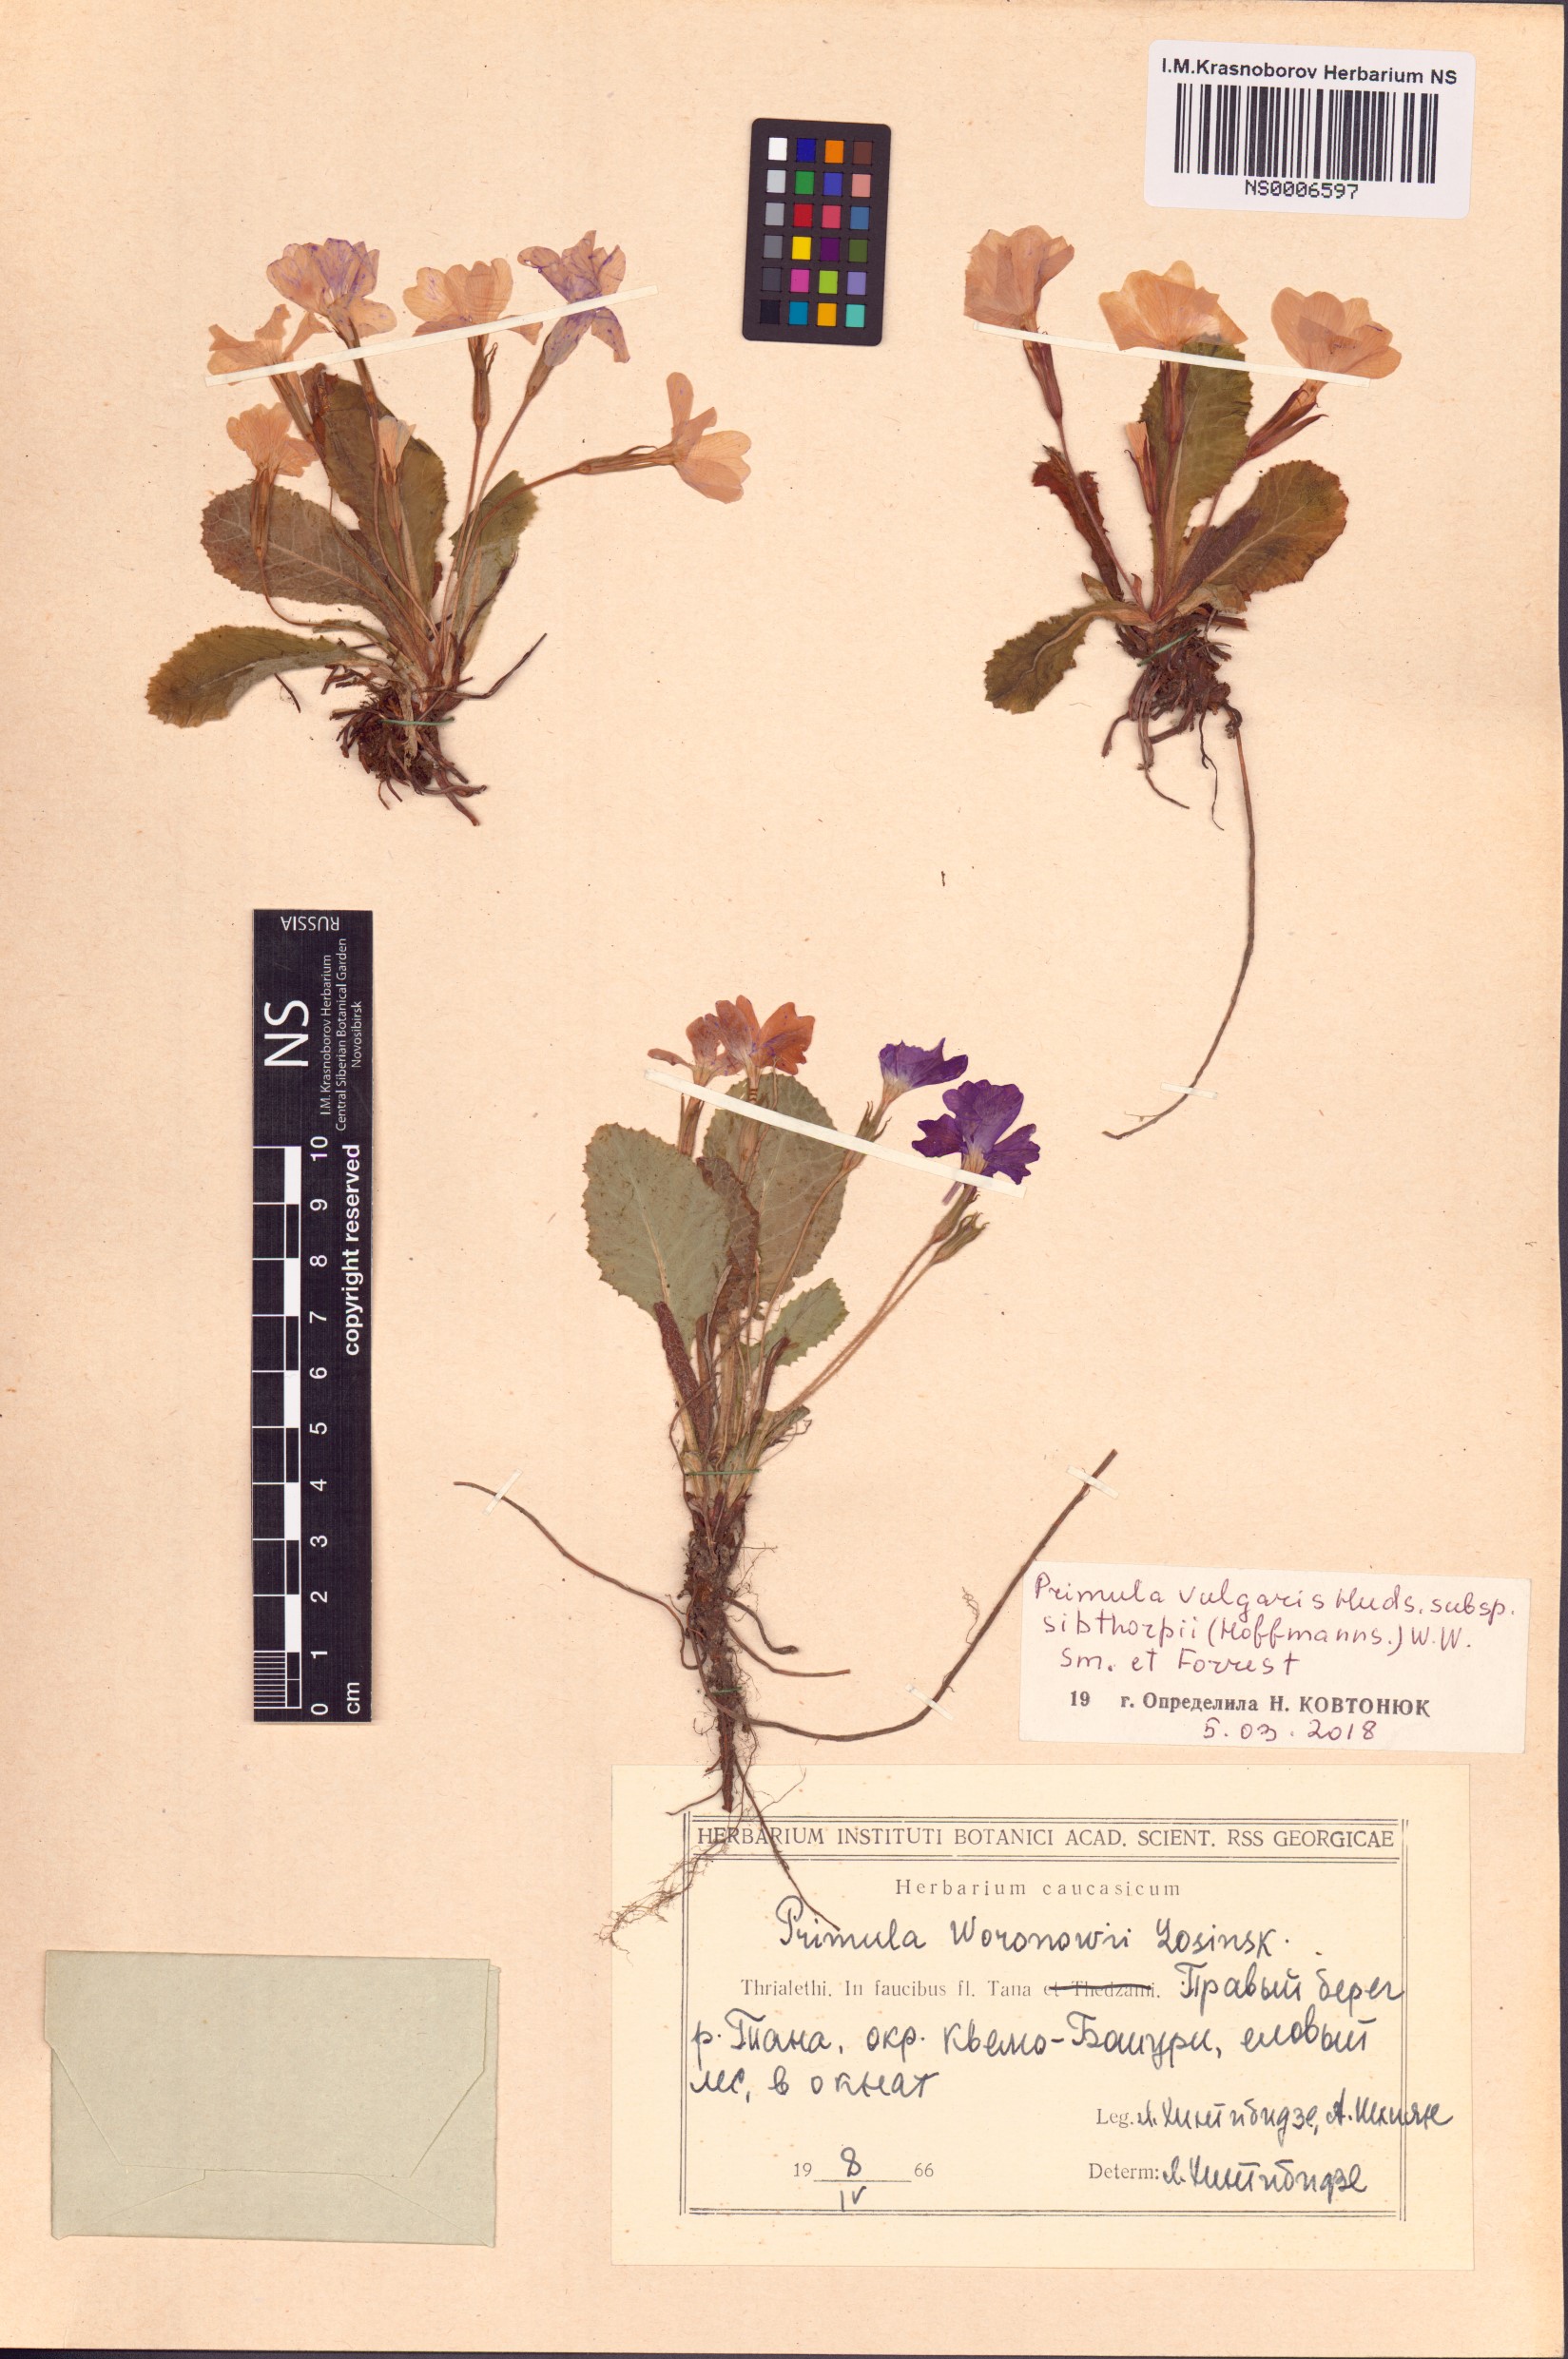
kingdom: Plantae
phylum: Tracheophyta
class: Magnoliopsida
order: Ericales
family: Primulaceae
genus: Primula
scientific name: Primula vulgaris
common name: Primrose
